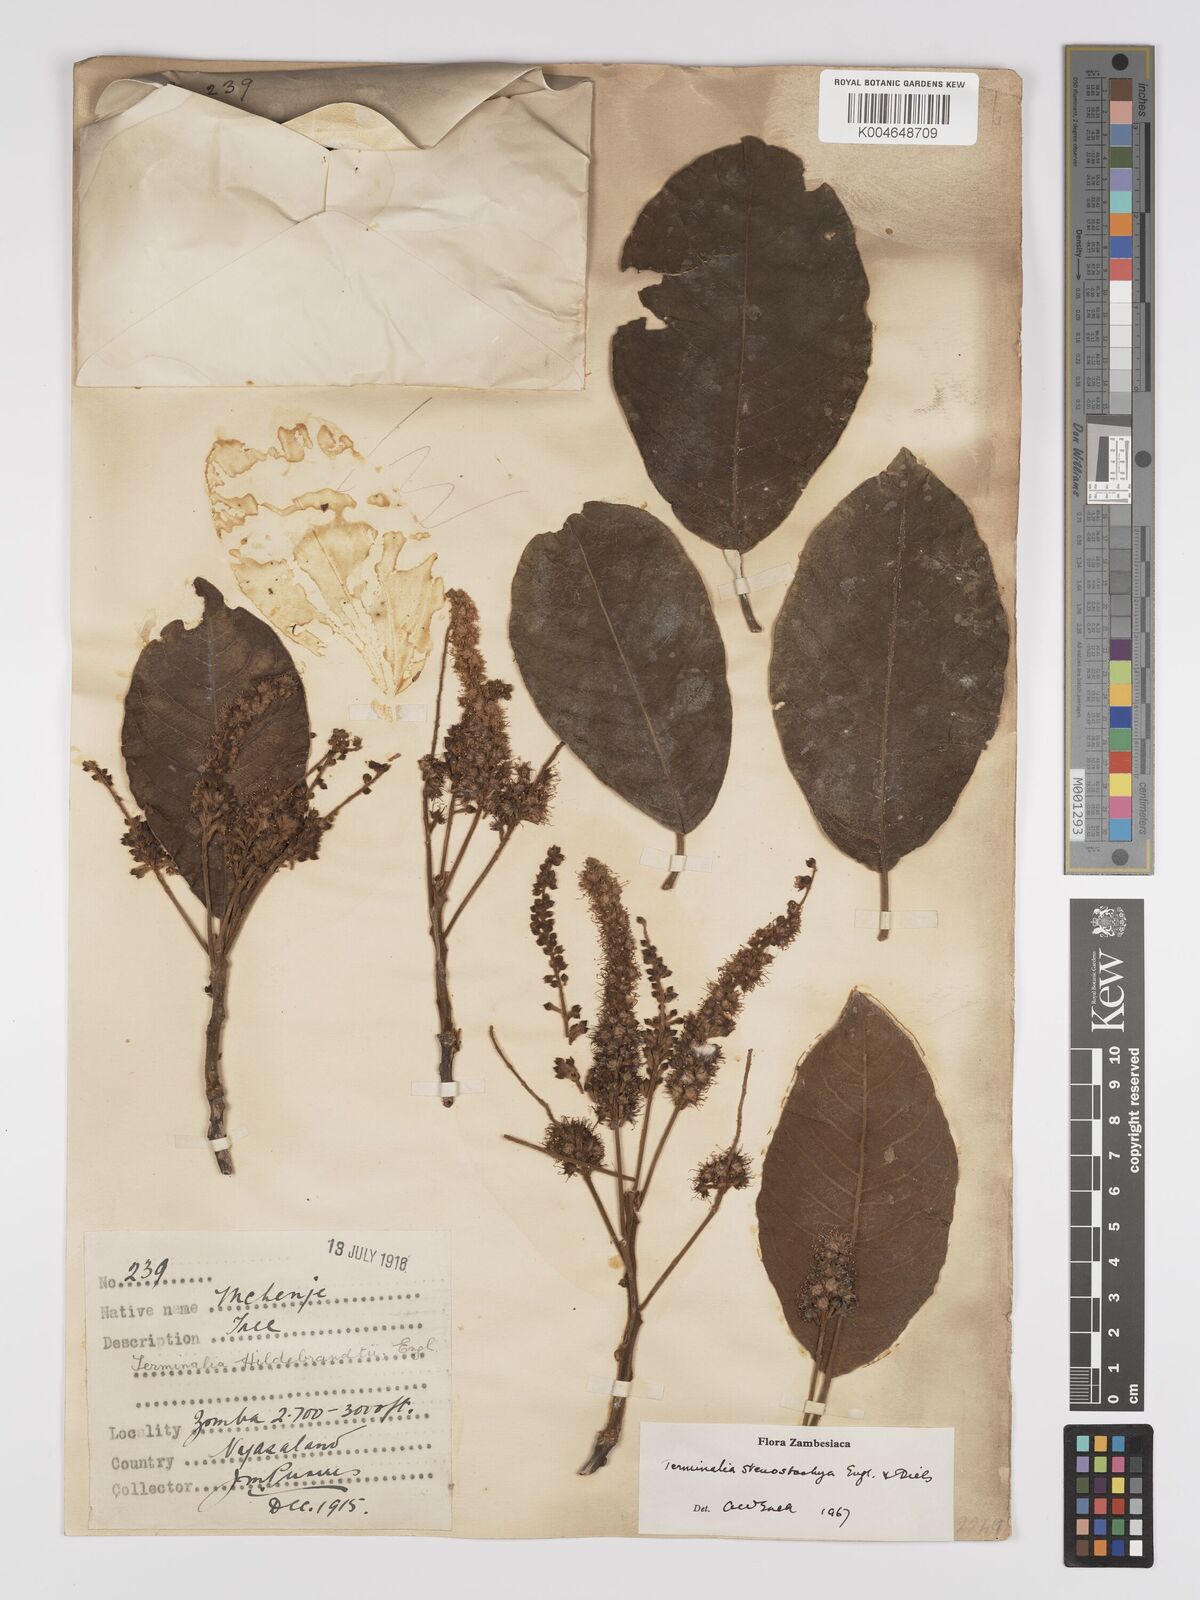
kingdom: Plantae
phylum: Tracheophyta
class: Magnoliopsida
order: Myrtales
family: Combretaceae
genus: Terminalia
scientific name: Terminalia stenostachya
